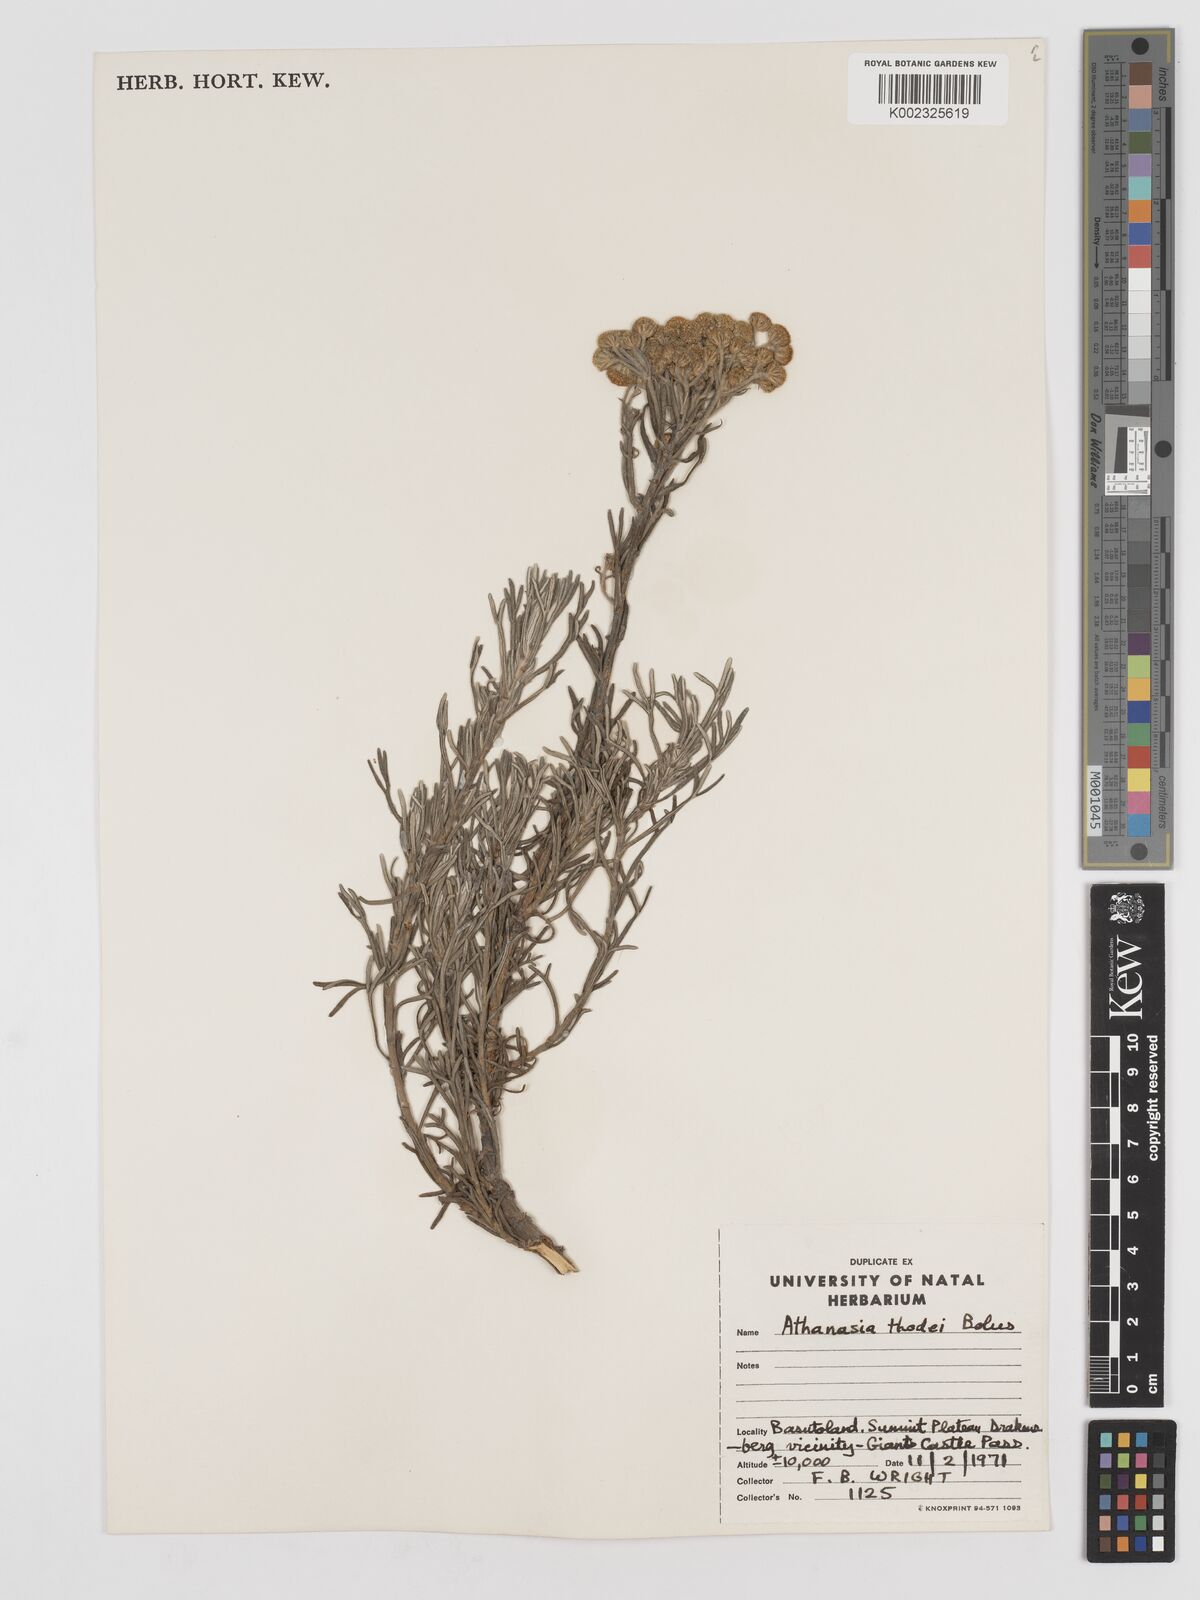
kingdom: Plantae
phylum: Tracheophyta
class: Magnoliopsida
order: Asterales
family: Asteraceae
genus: Inulanthera
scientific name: Inulanthera thodei
